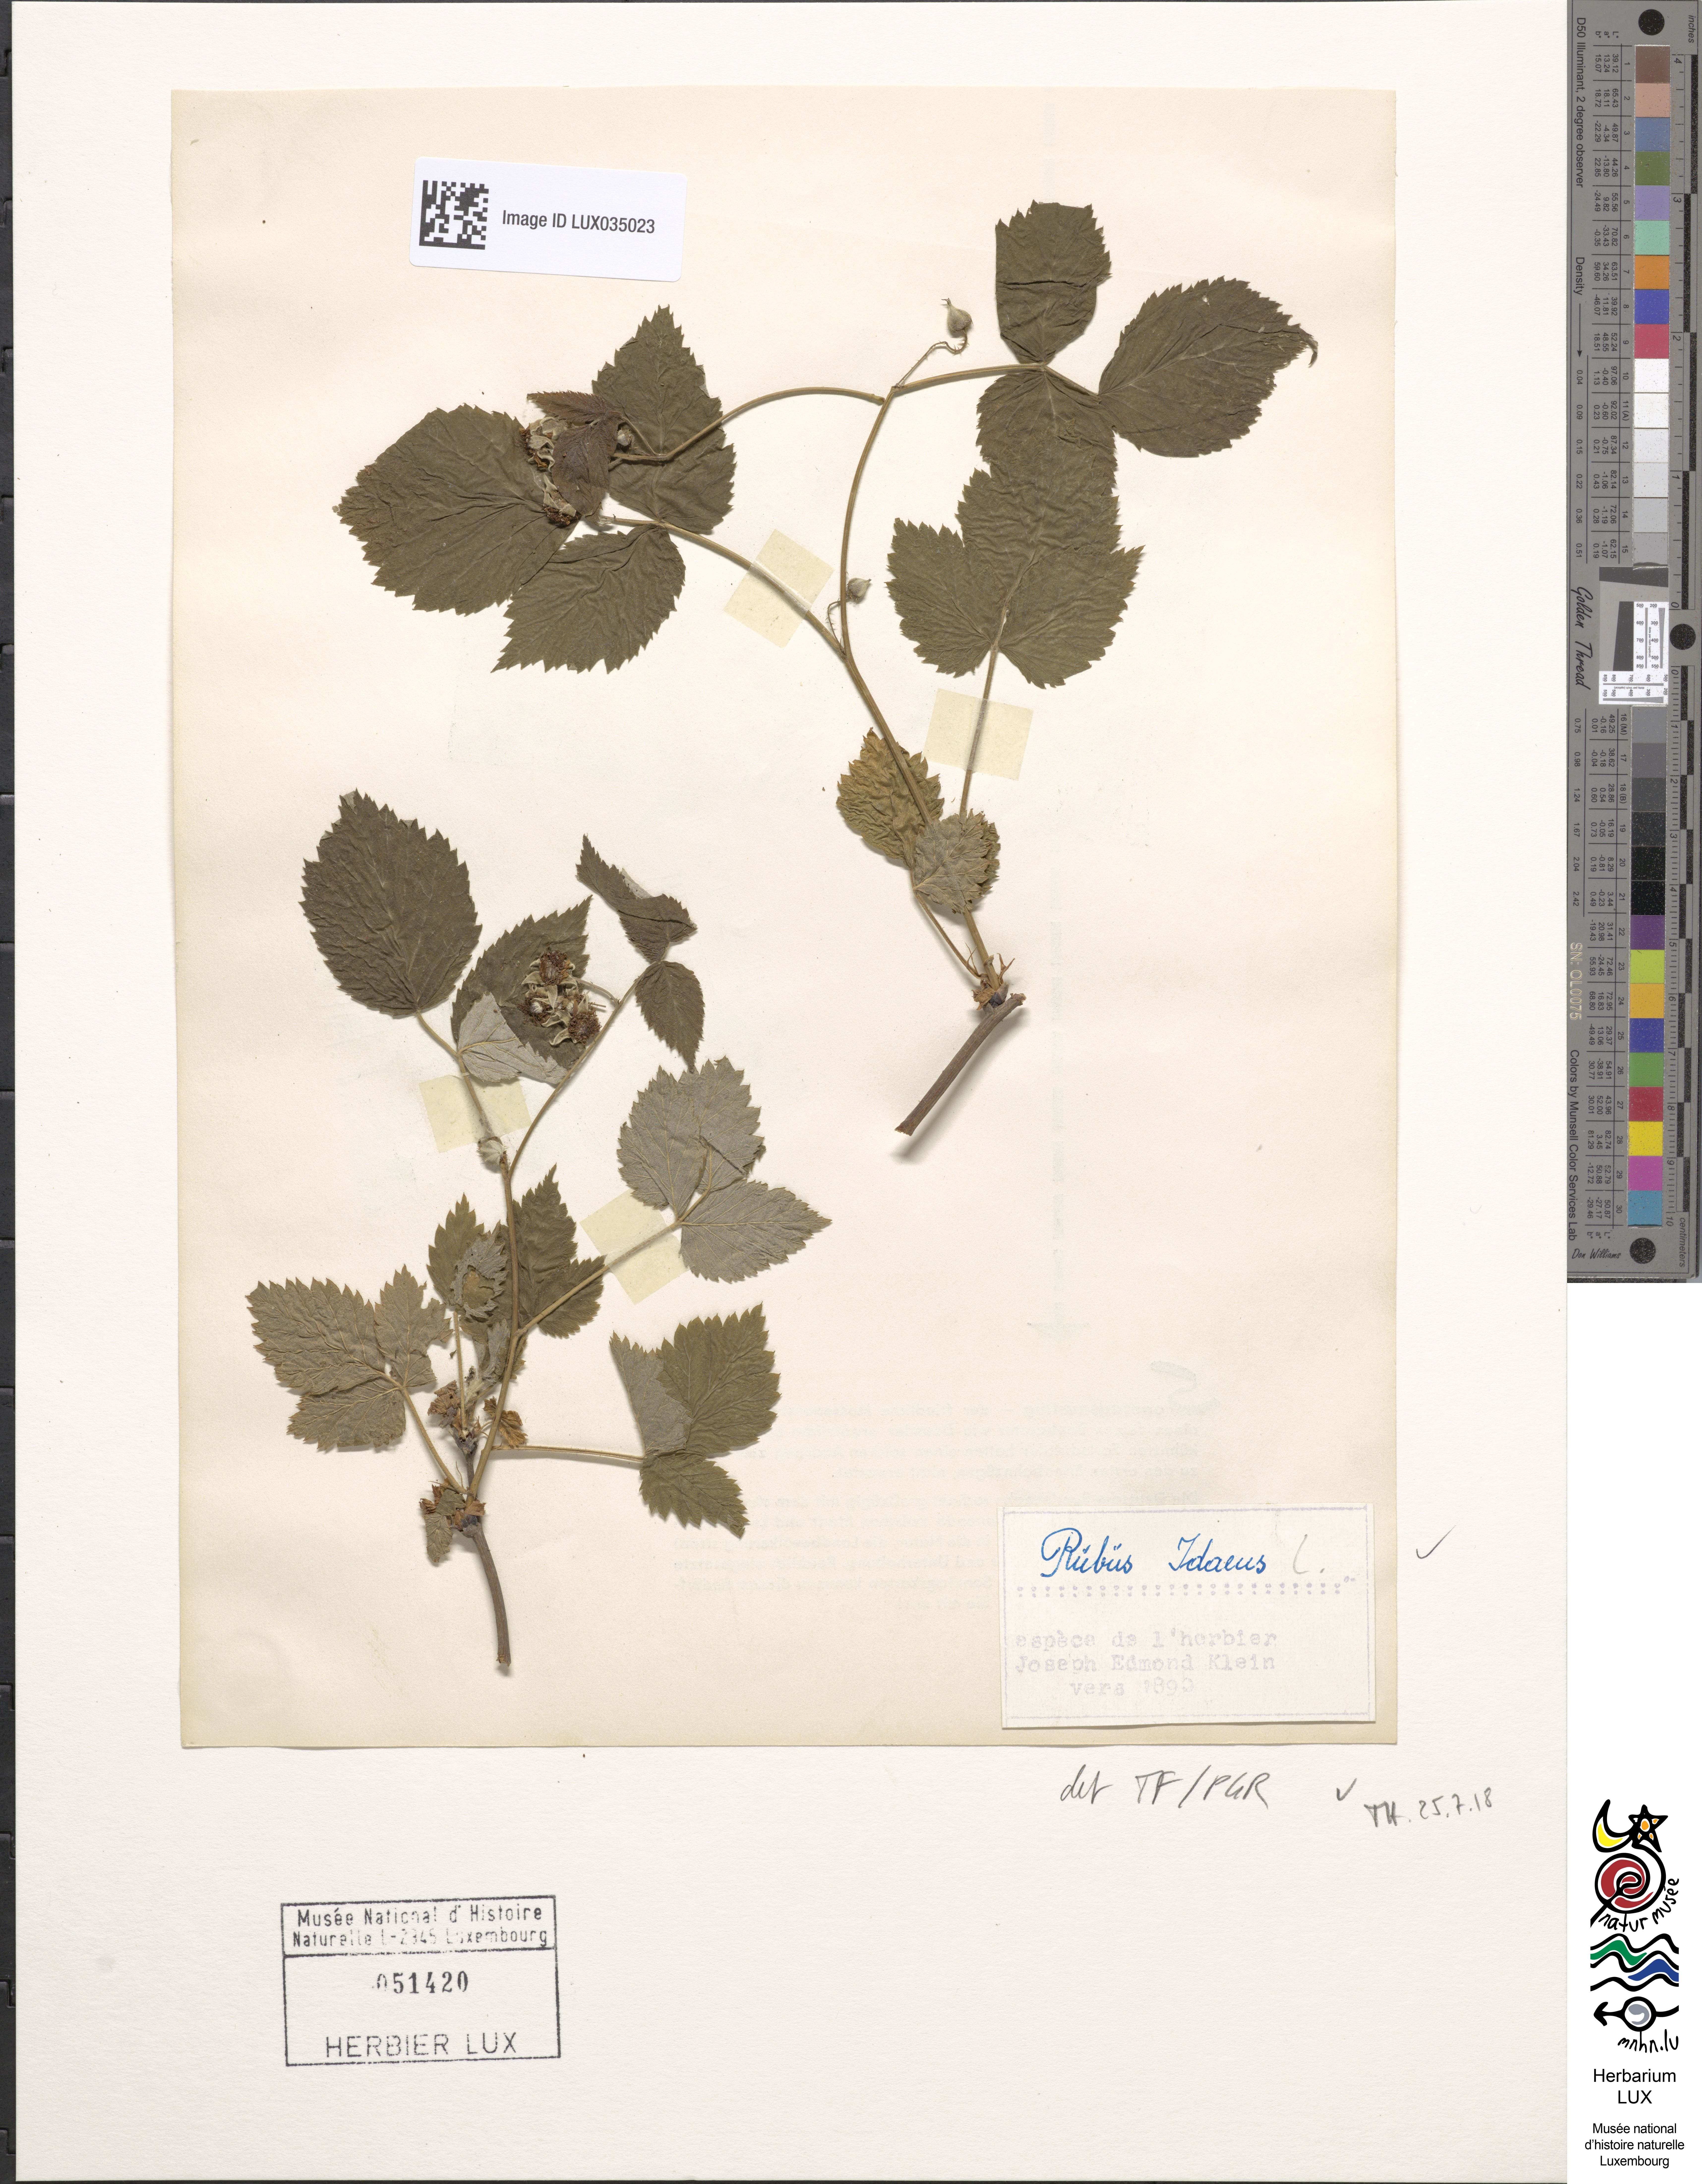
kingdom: Plantae
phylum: Tracheophyta
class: Magnoliopsida
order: Rosales
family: Rosaceae
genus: Rubus
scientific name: Rubus idaeus
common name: Raspberry
